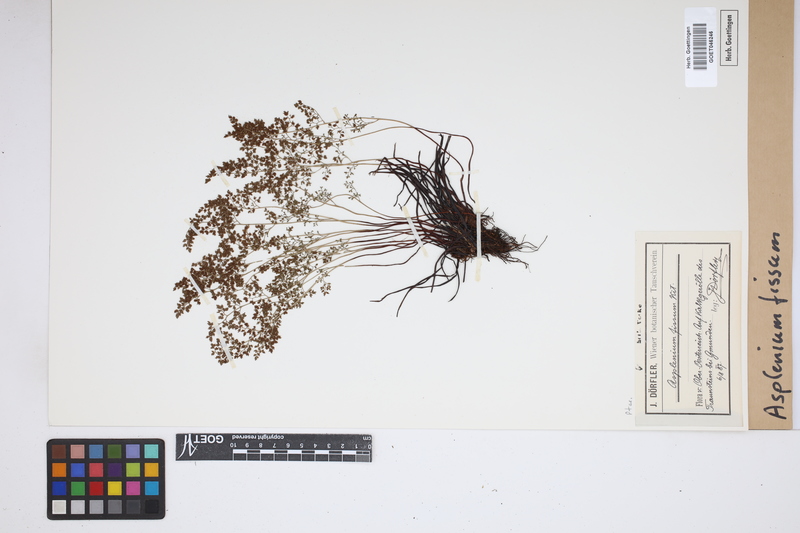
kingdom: Plantae
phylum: Tracheophyta
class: Polypodiopsida
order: Polypodiales
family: Aspleniaceae
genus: Asplenium
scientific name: Asplenium fissum
